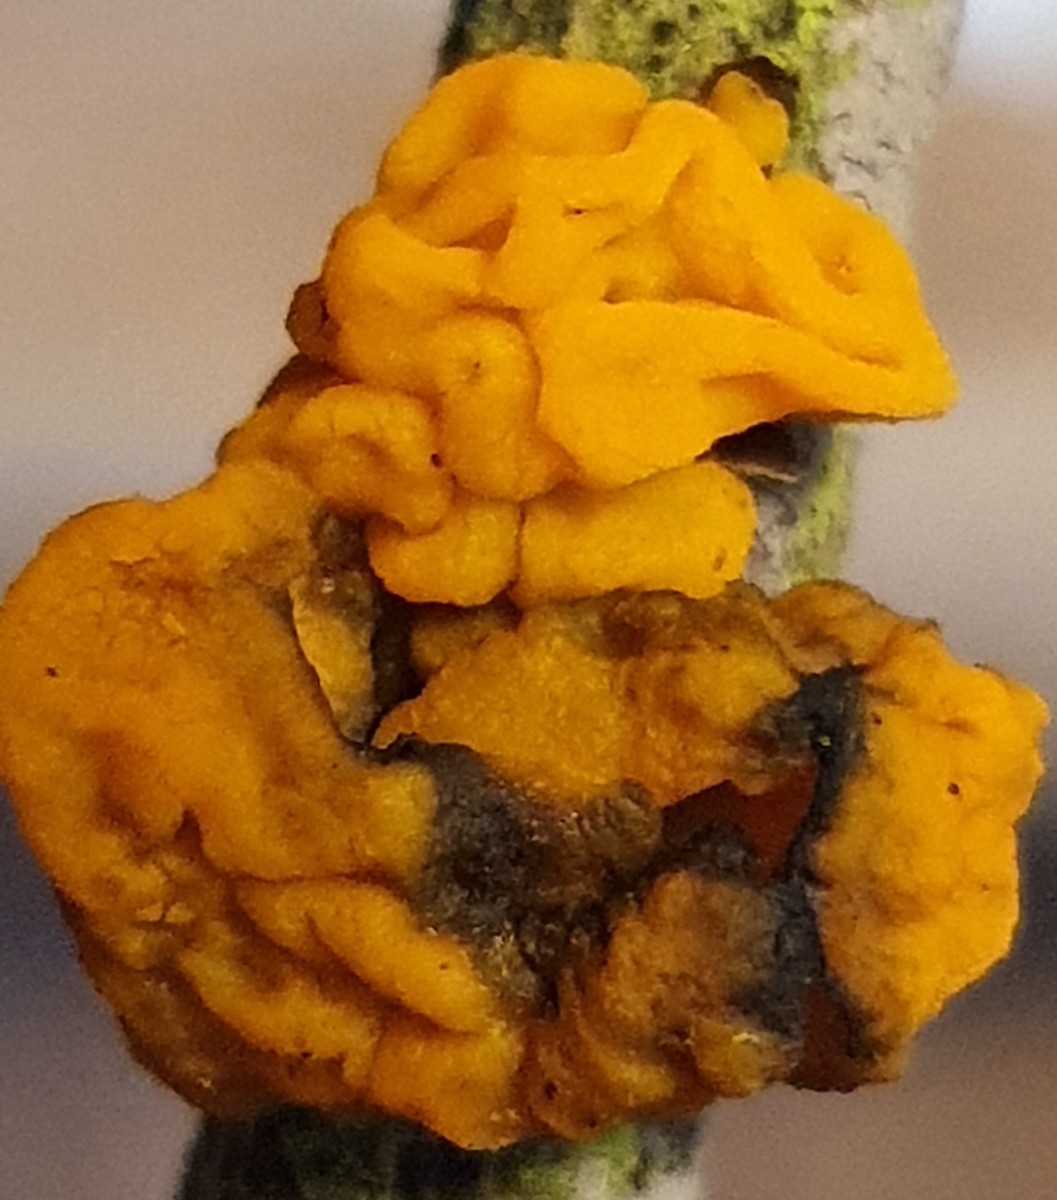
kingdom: Fungi
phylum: Basidiomycota
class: Tremellomycetes
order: Tremellales
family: Tremellaceae
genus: Tremella
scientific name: Tremella mesenterica
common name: gul bævresvamp
